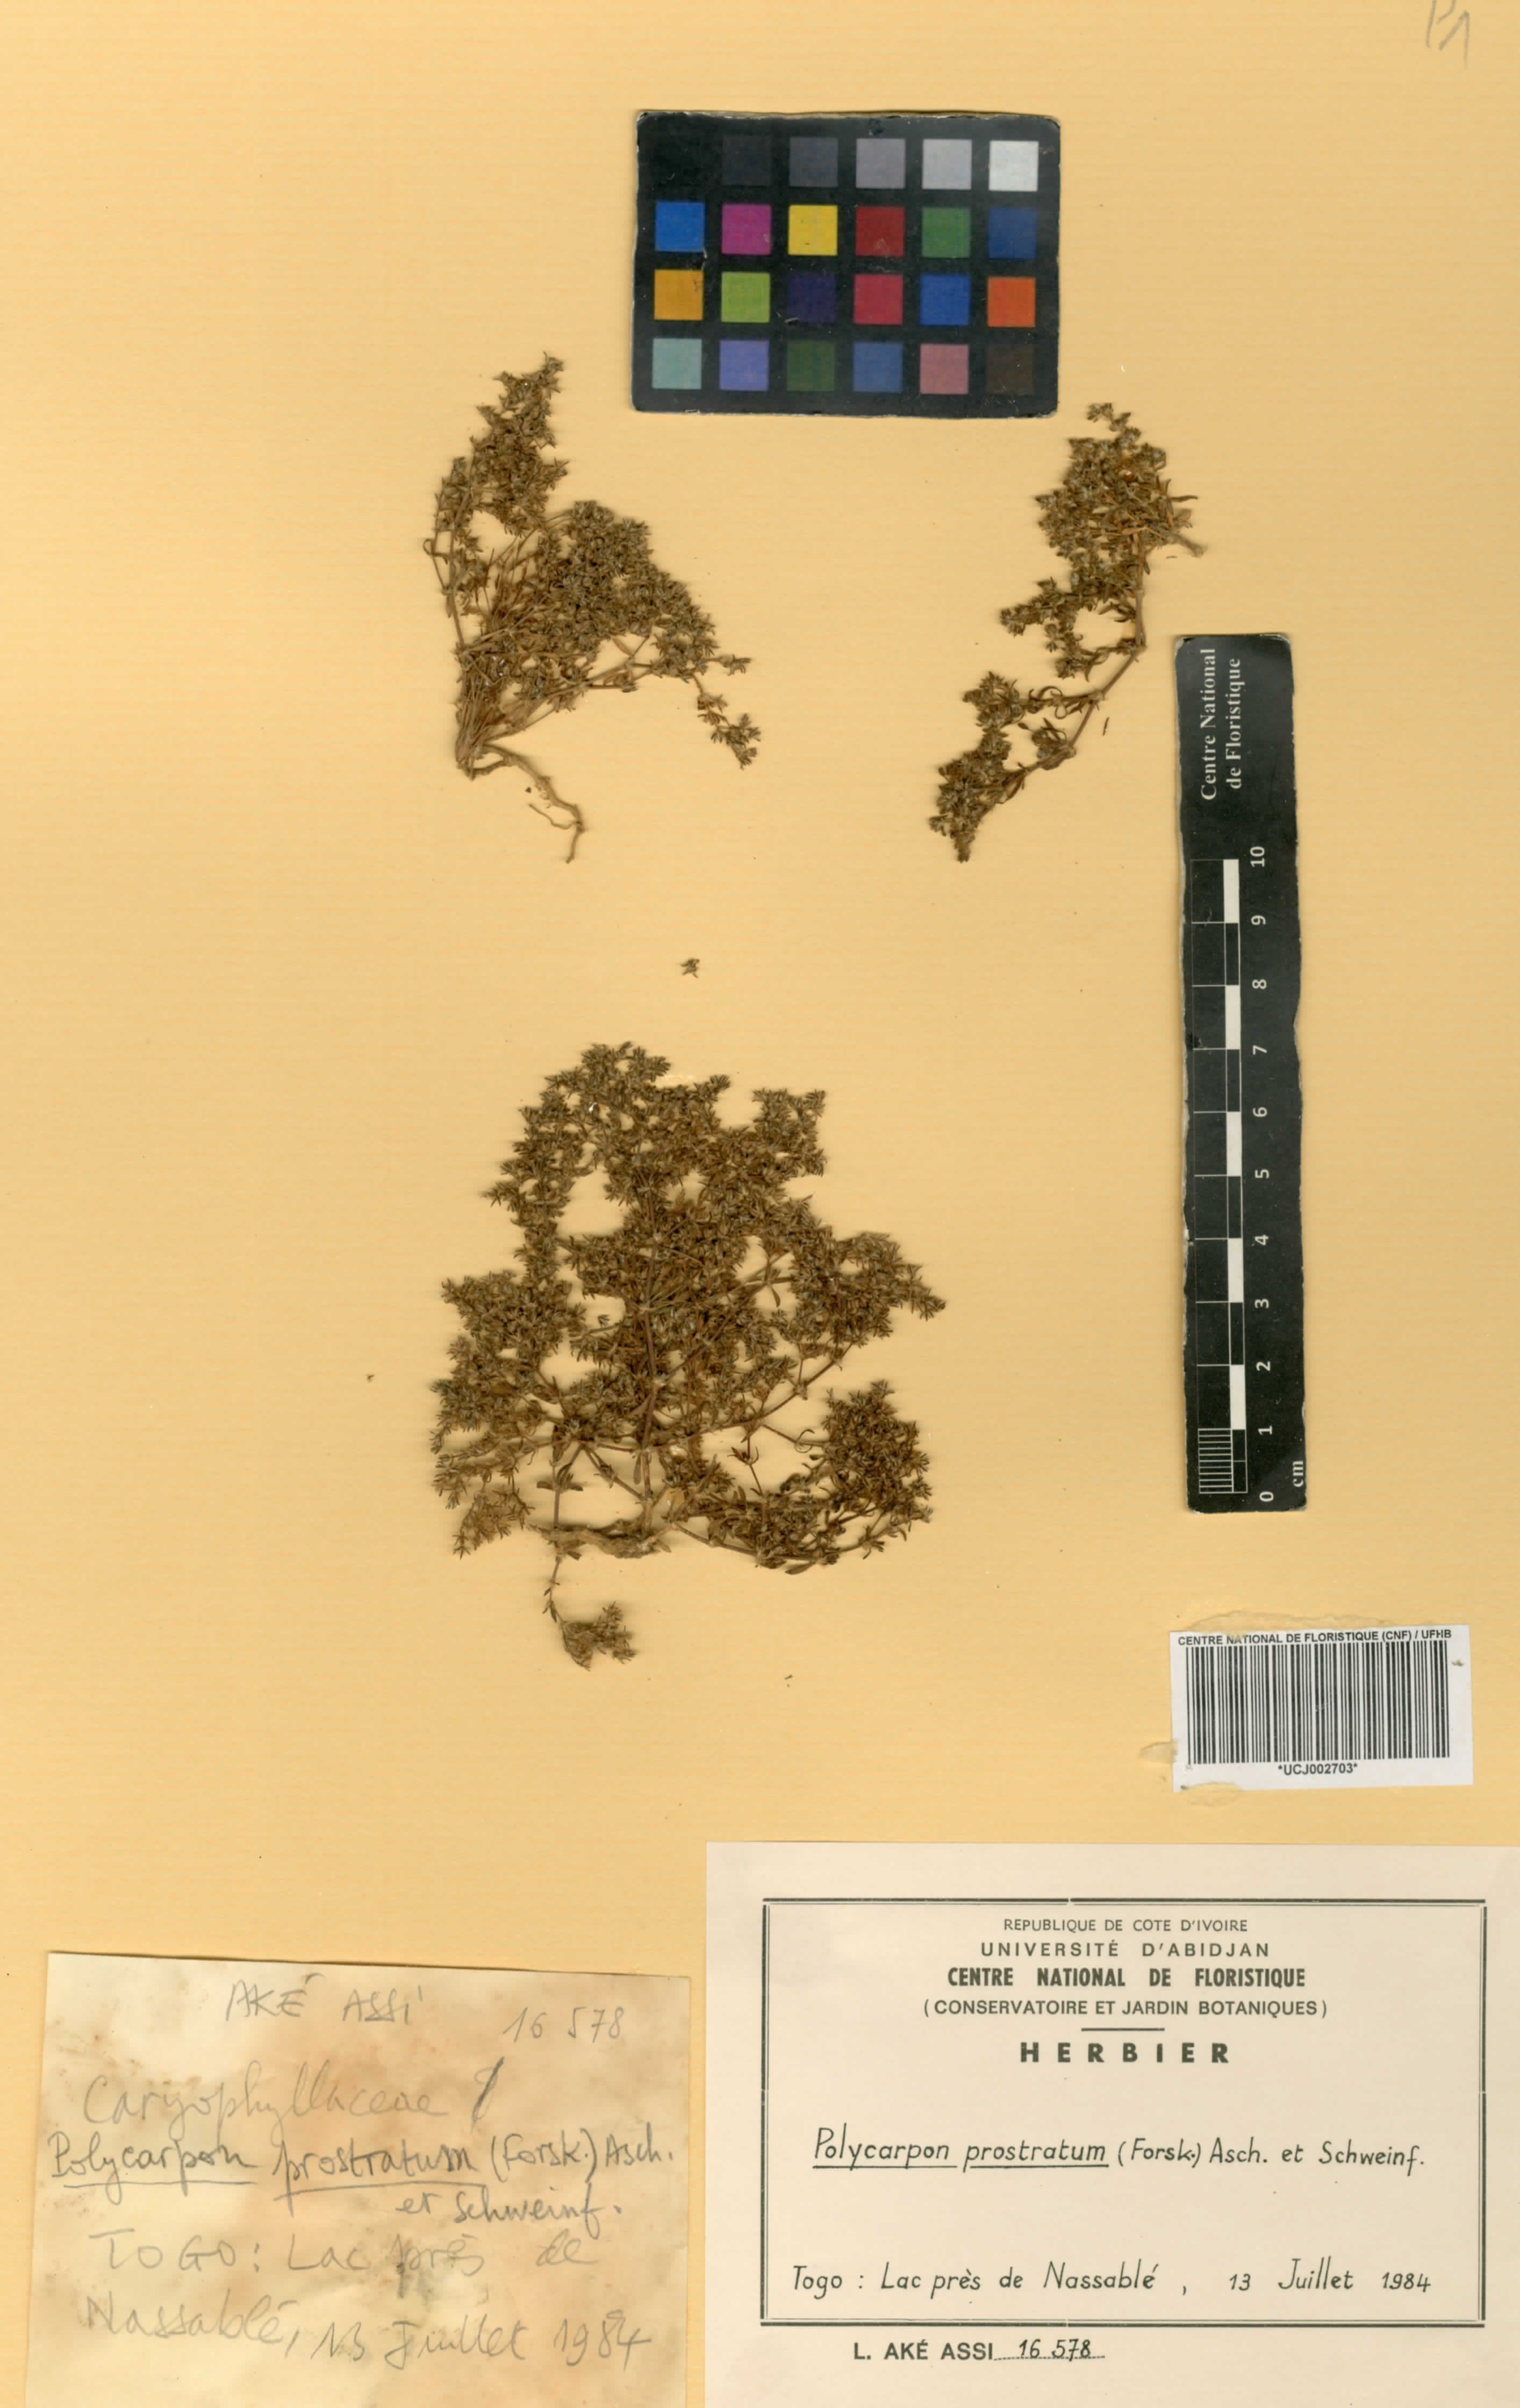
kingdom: Plantae
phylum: Tracheophyta
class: Magnoliopsida
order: Caryophyllales
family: Caryophyllaceae
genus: Polycarpon
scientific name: Polycarpon prostratum
